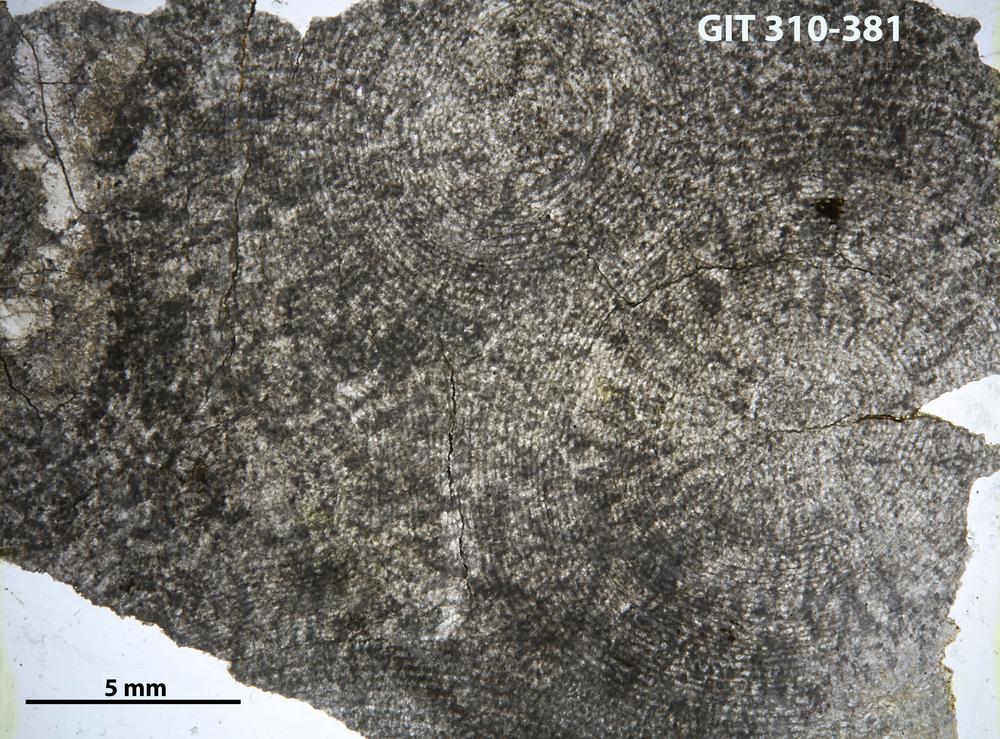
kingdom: Animalia
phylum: Porifera
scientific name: Porifera
